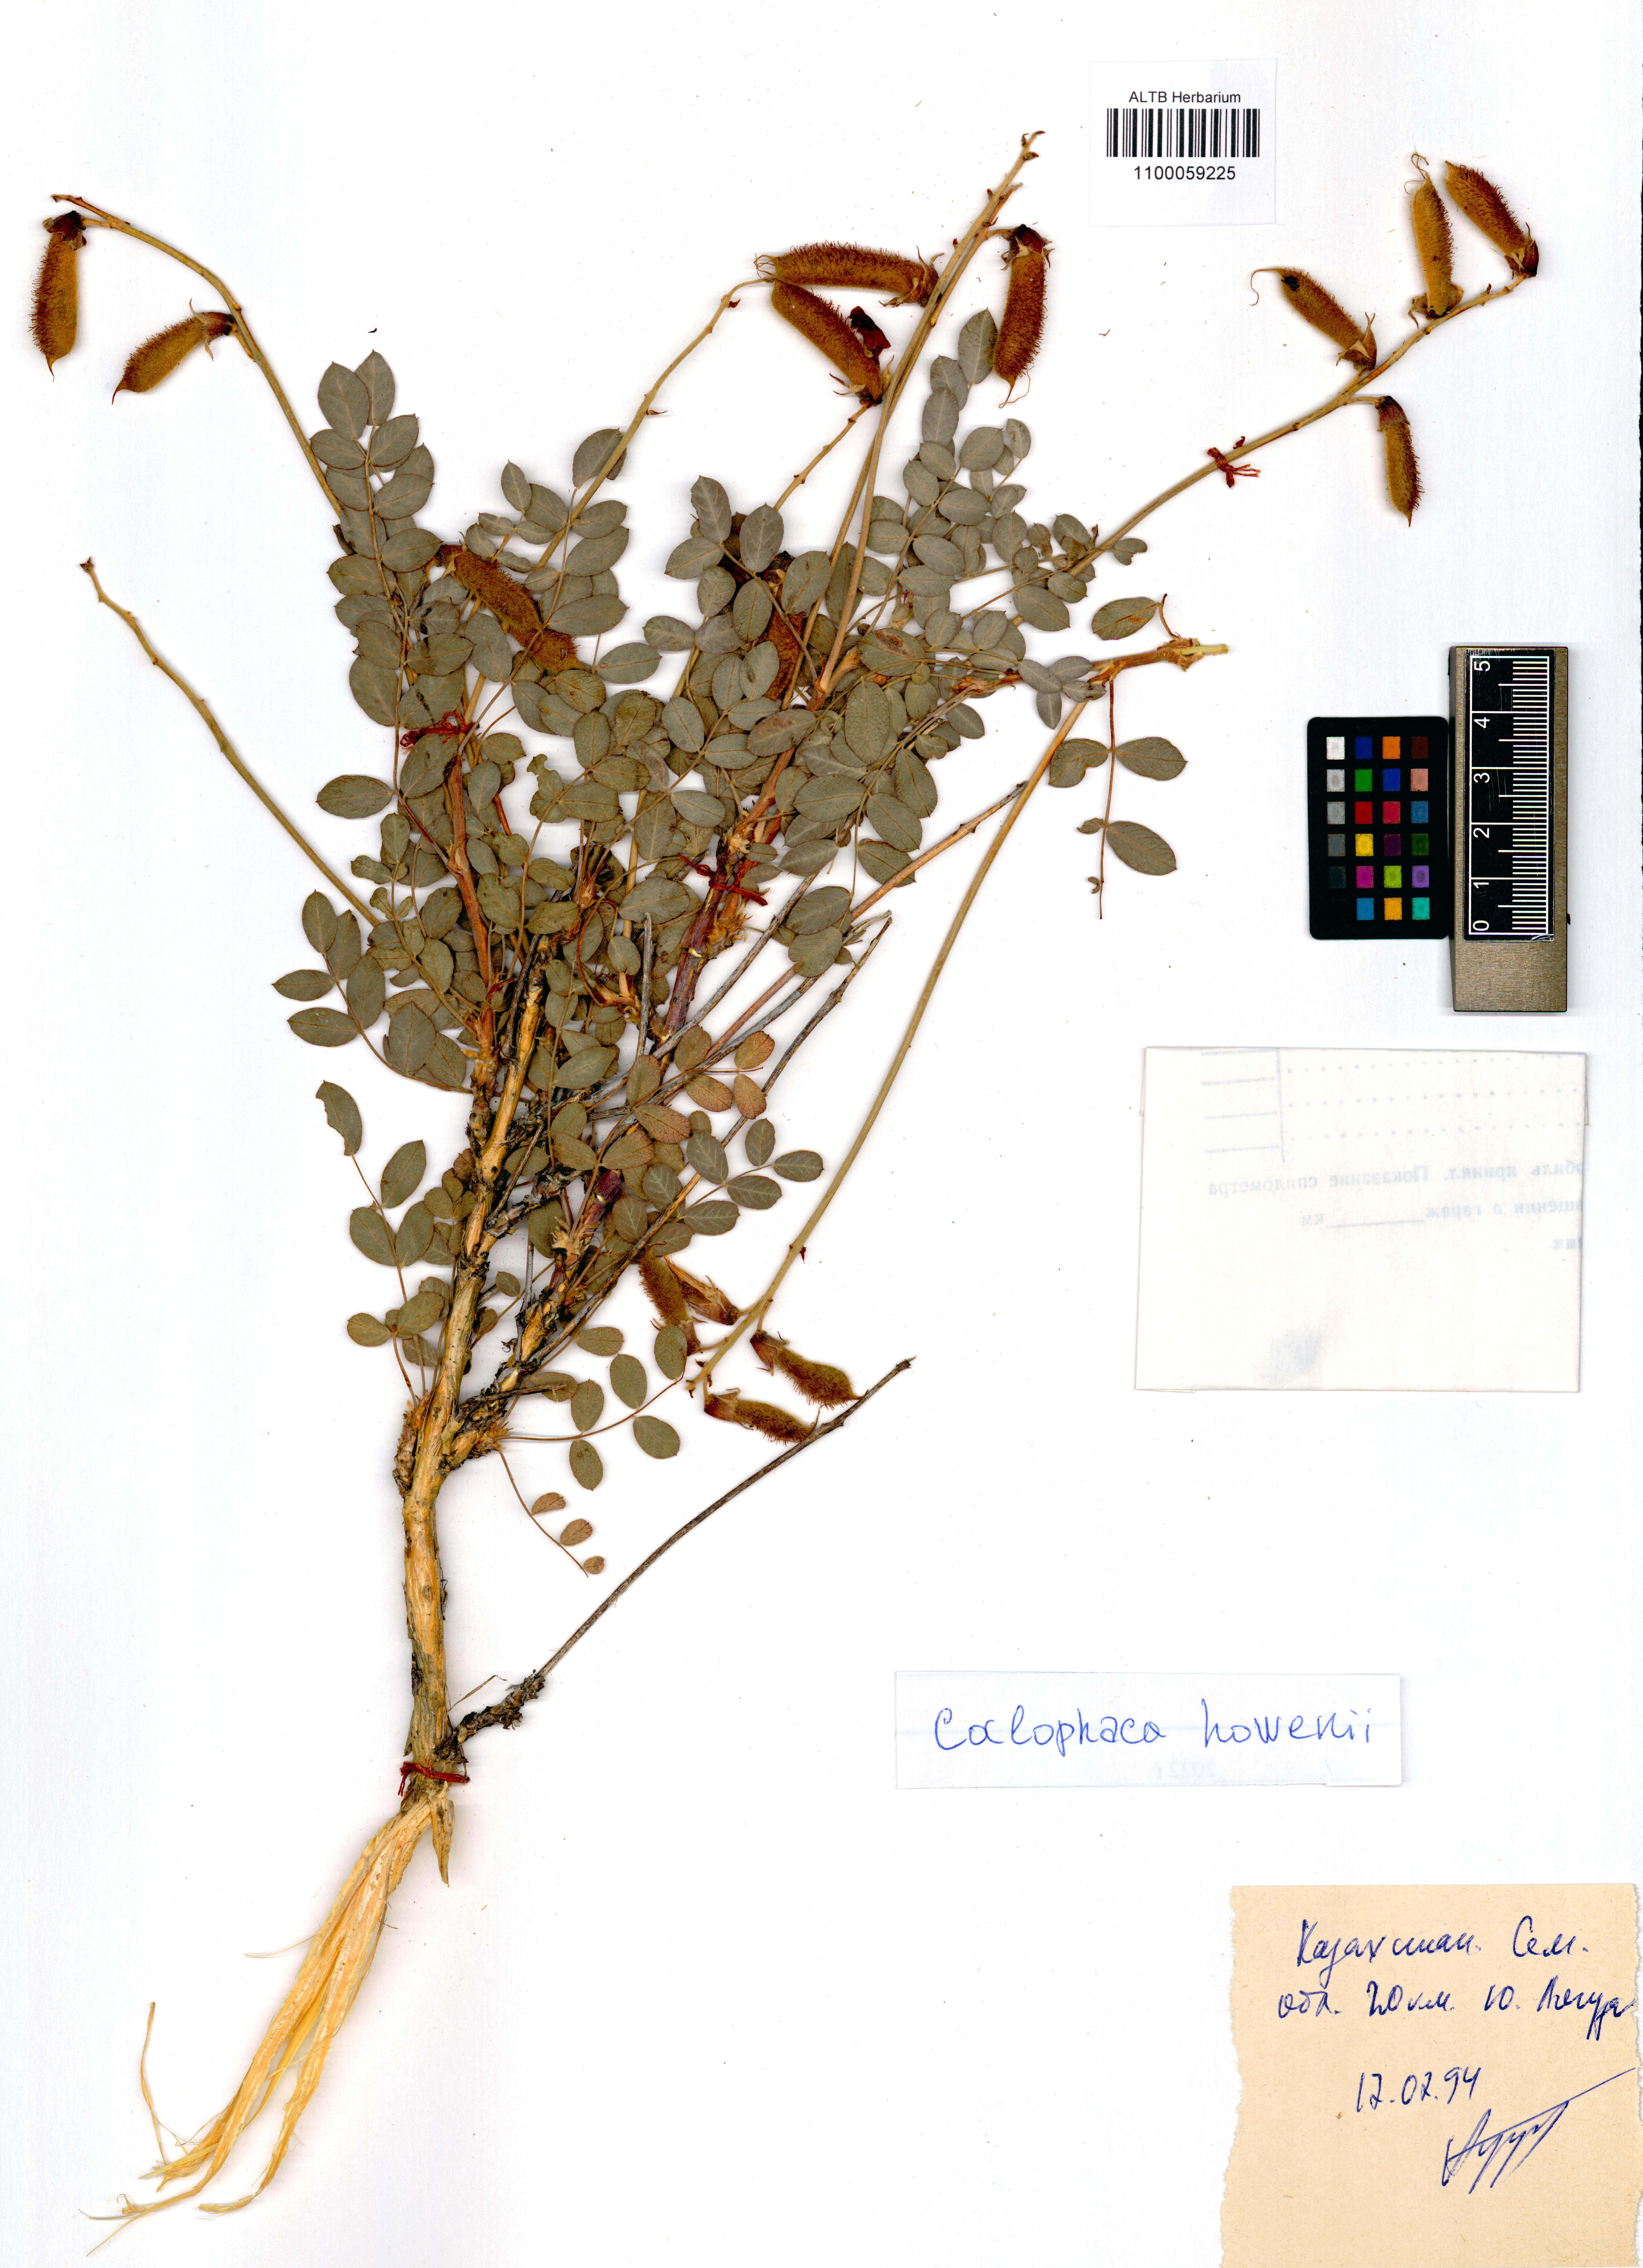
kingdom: Plantae
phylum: Tracheophyta
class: Magnoliopsida
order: Fabales
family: Fabaceae
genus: Calophaca
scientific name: Calophaca soongorica
